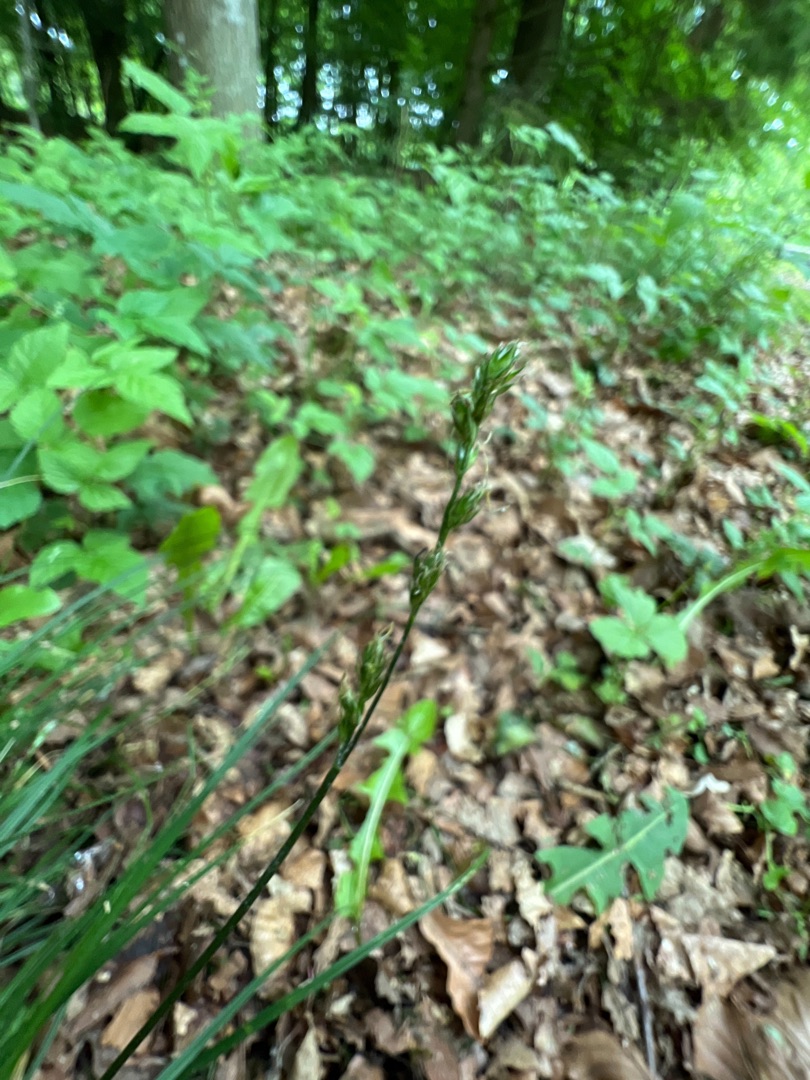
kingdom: Plantae
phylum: Tracheophyta
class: Liliopsida
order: Poales
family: Cyperaceae
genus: Carex
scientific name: Carex divulsa
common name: Mellembrudt star
